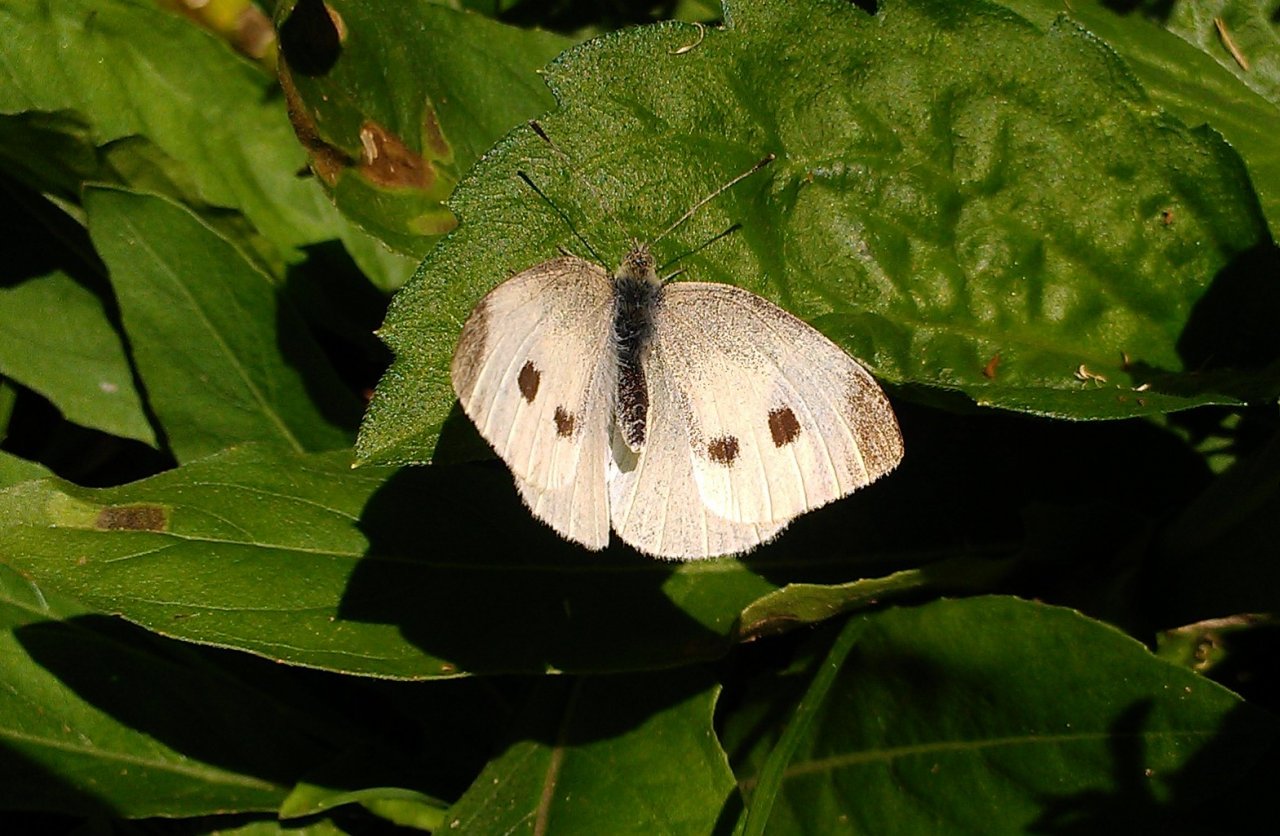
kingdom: Animalia
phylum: Arthropoda
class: Insecta
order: Lepidoptera
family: Pieridae
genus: Pieris
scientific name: Pieris rapae
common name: Cabbage White
